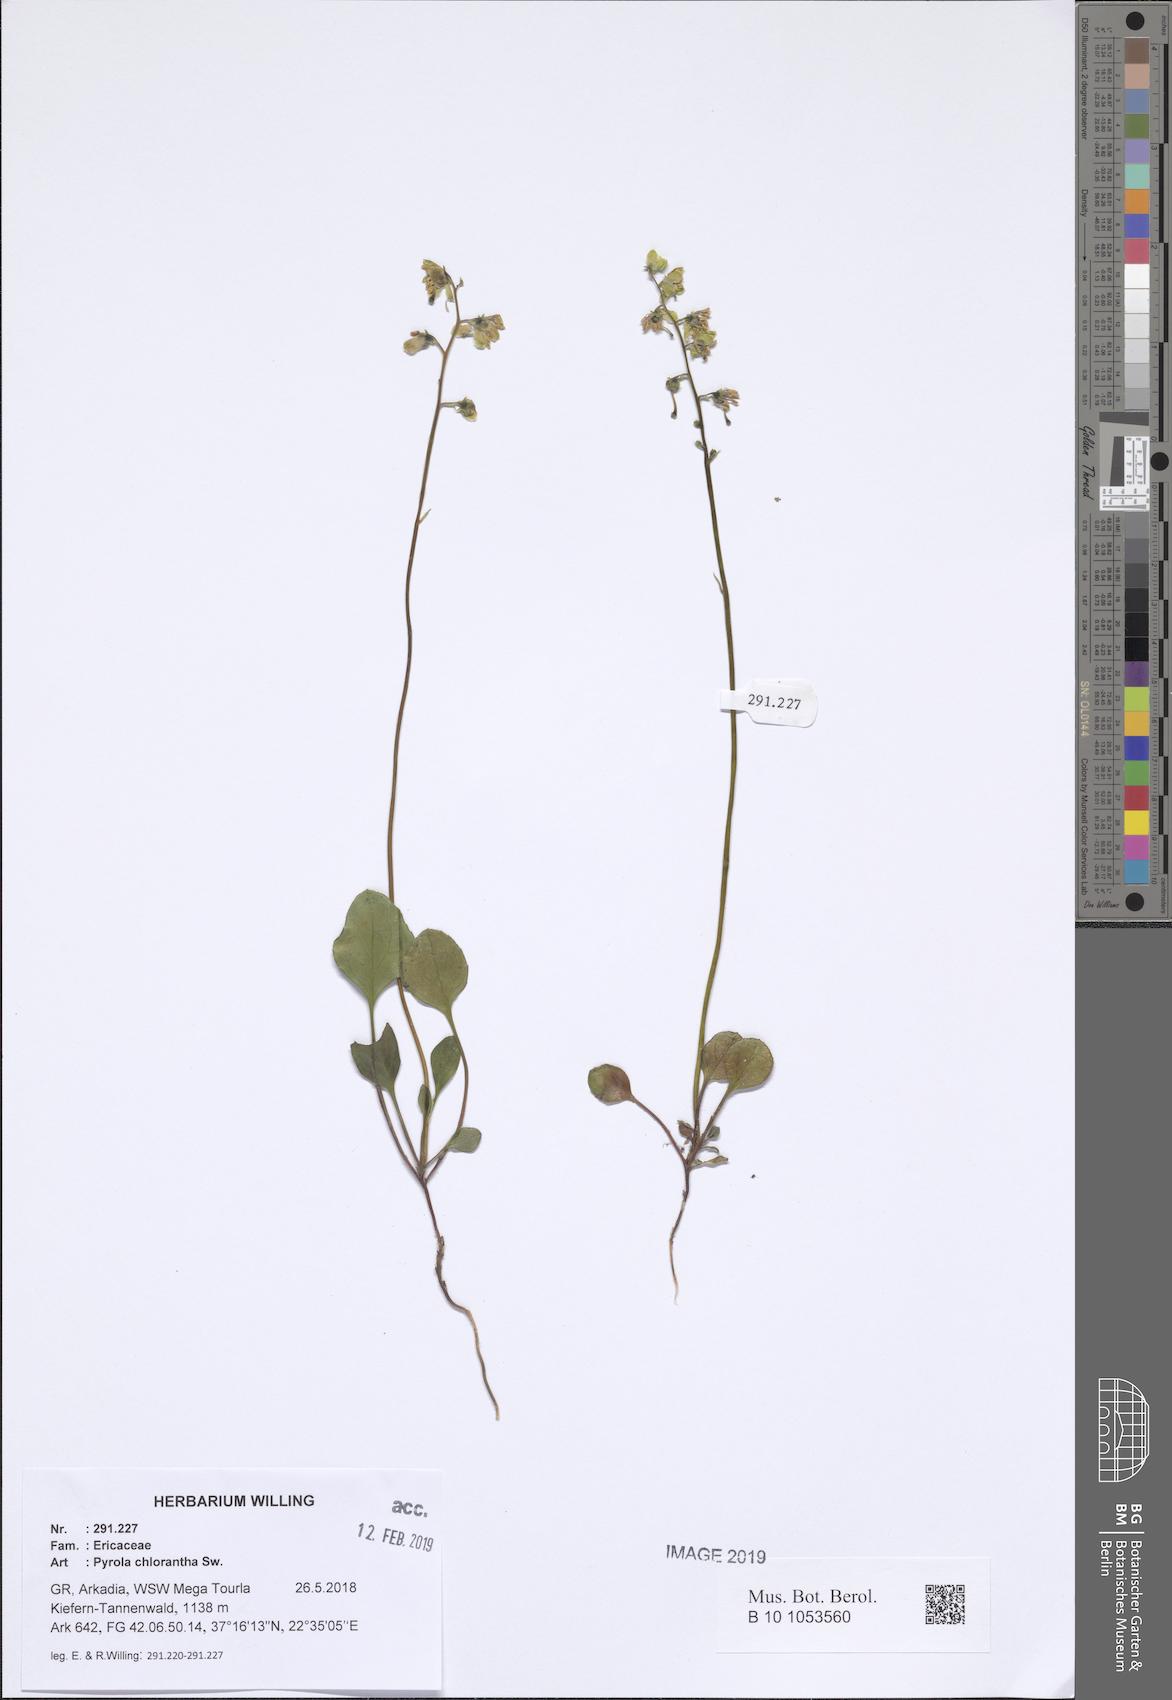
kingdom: Plantae
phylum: Tracheophyta
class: Magnoliopsida
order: Ericales
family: Ericaceae
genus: Pyrola
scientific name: Pyrola chlorantha
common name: Green wintergreen
